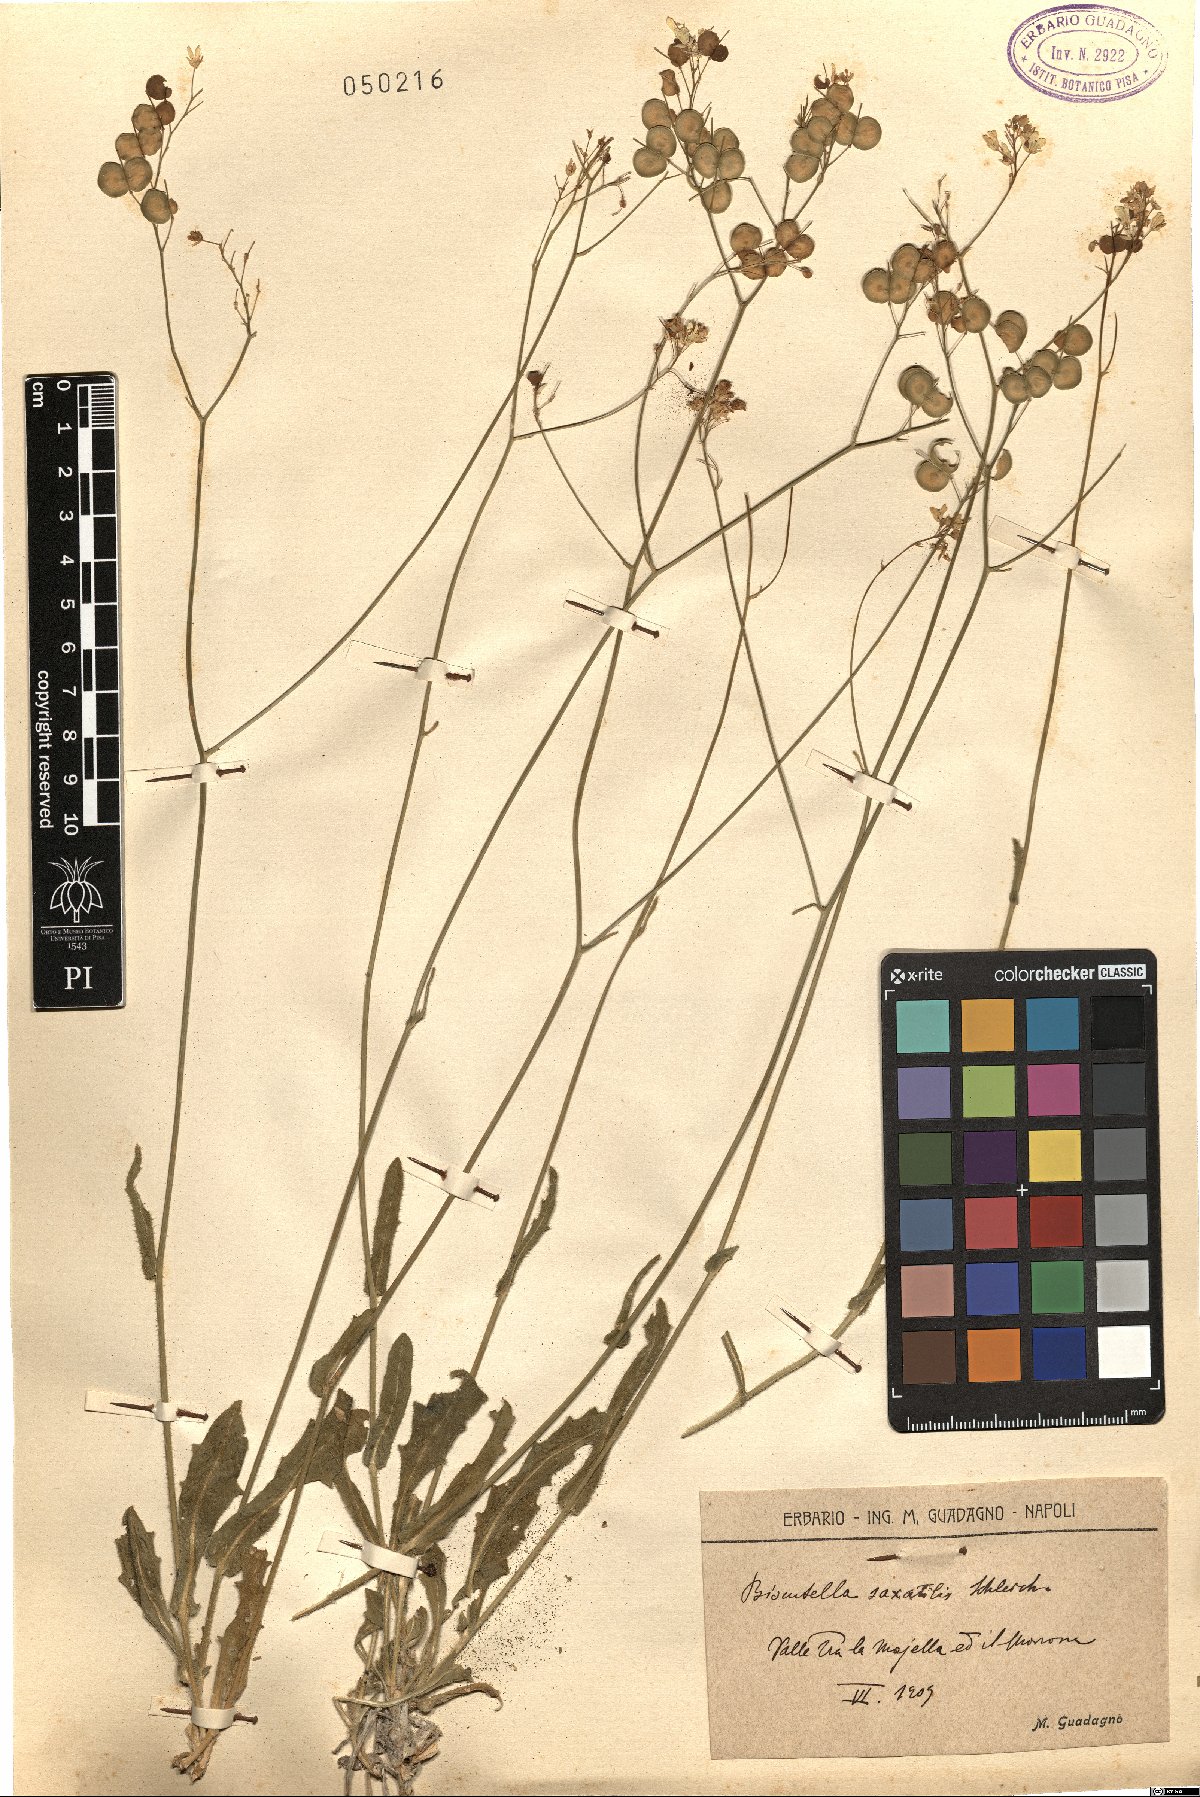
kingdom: Plantae
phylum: Tracheophyta
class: Magnoliopsida
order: Brassicales
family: Brassicaceae
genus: Biscutella
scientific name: Biscutella laevigata
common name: Buckler mustard
